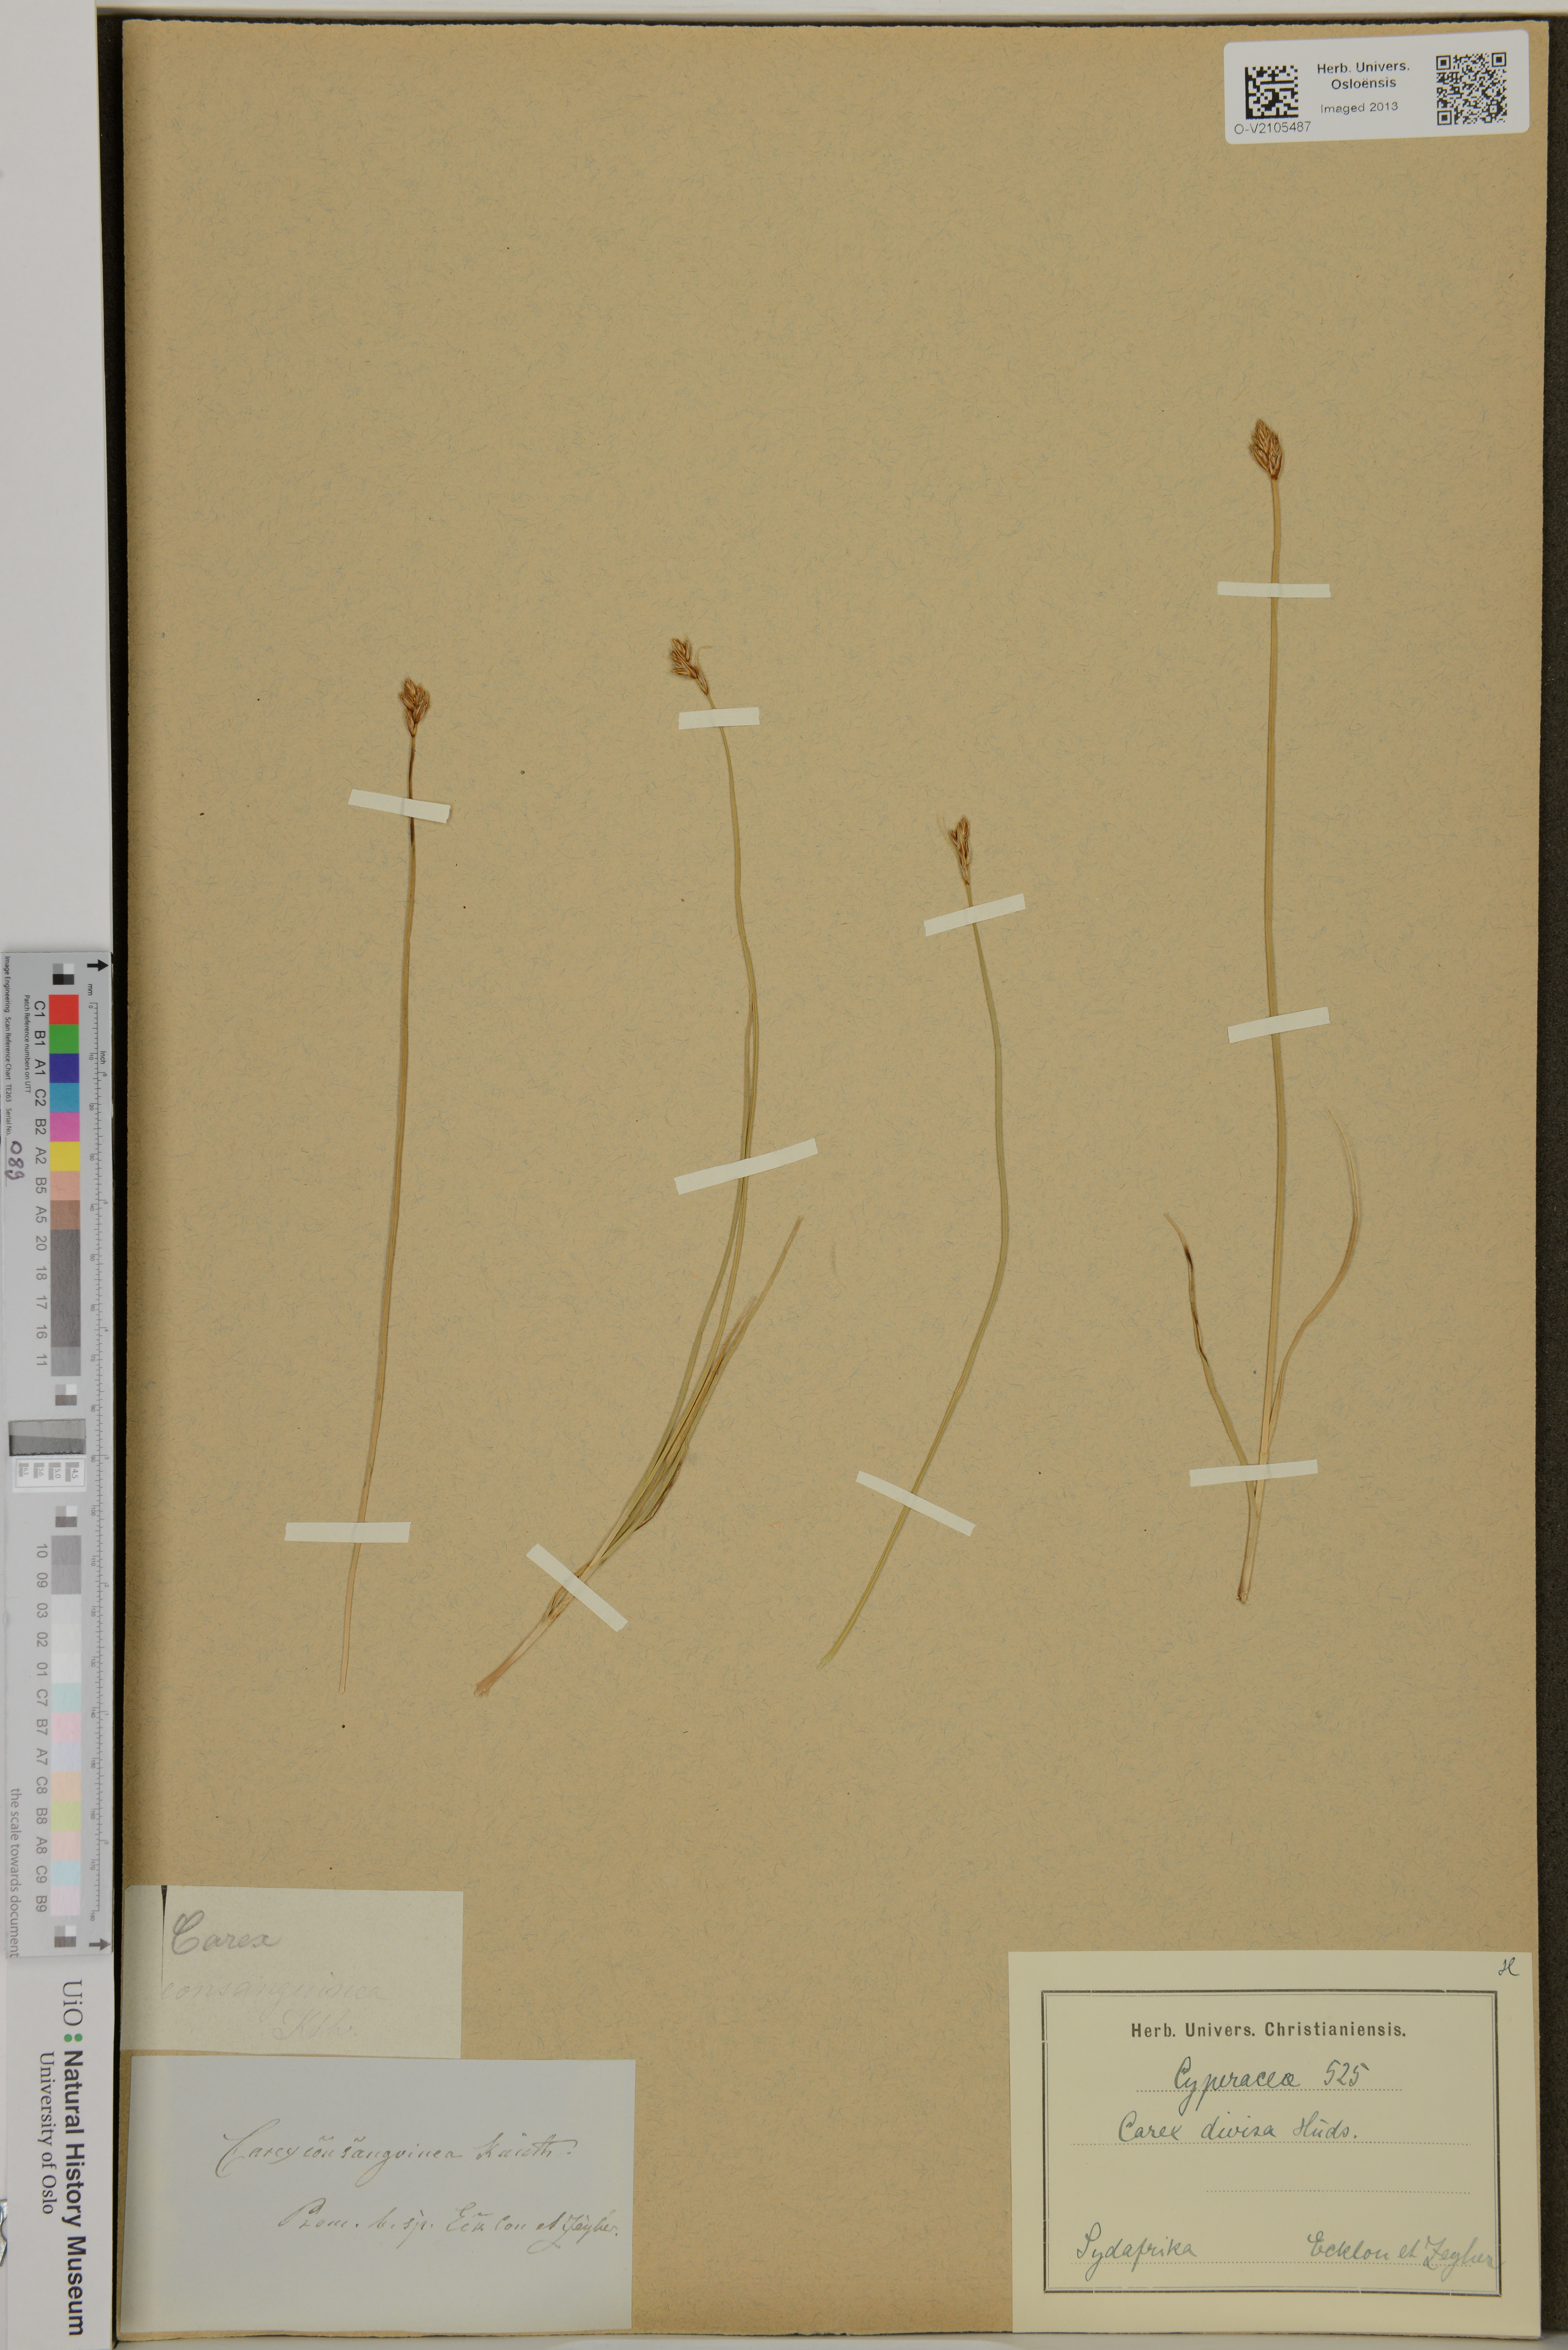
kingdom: Plantae
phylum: Tracheophyta
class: Liliopsida
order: Poales
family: Cyperaceae
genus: Carex
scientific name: Carex divisa
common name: Divided sedge
